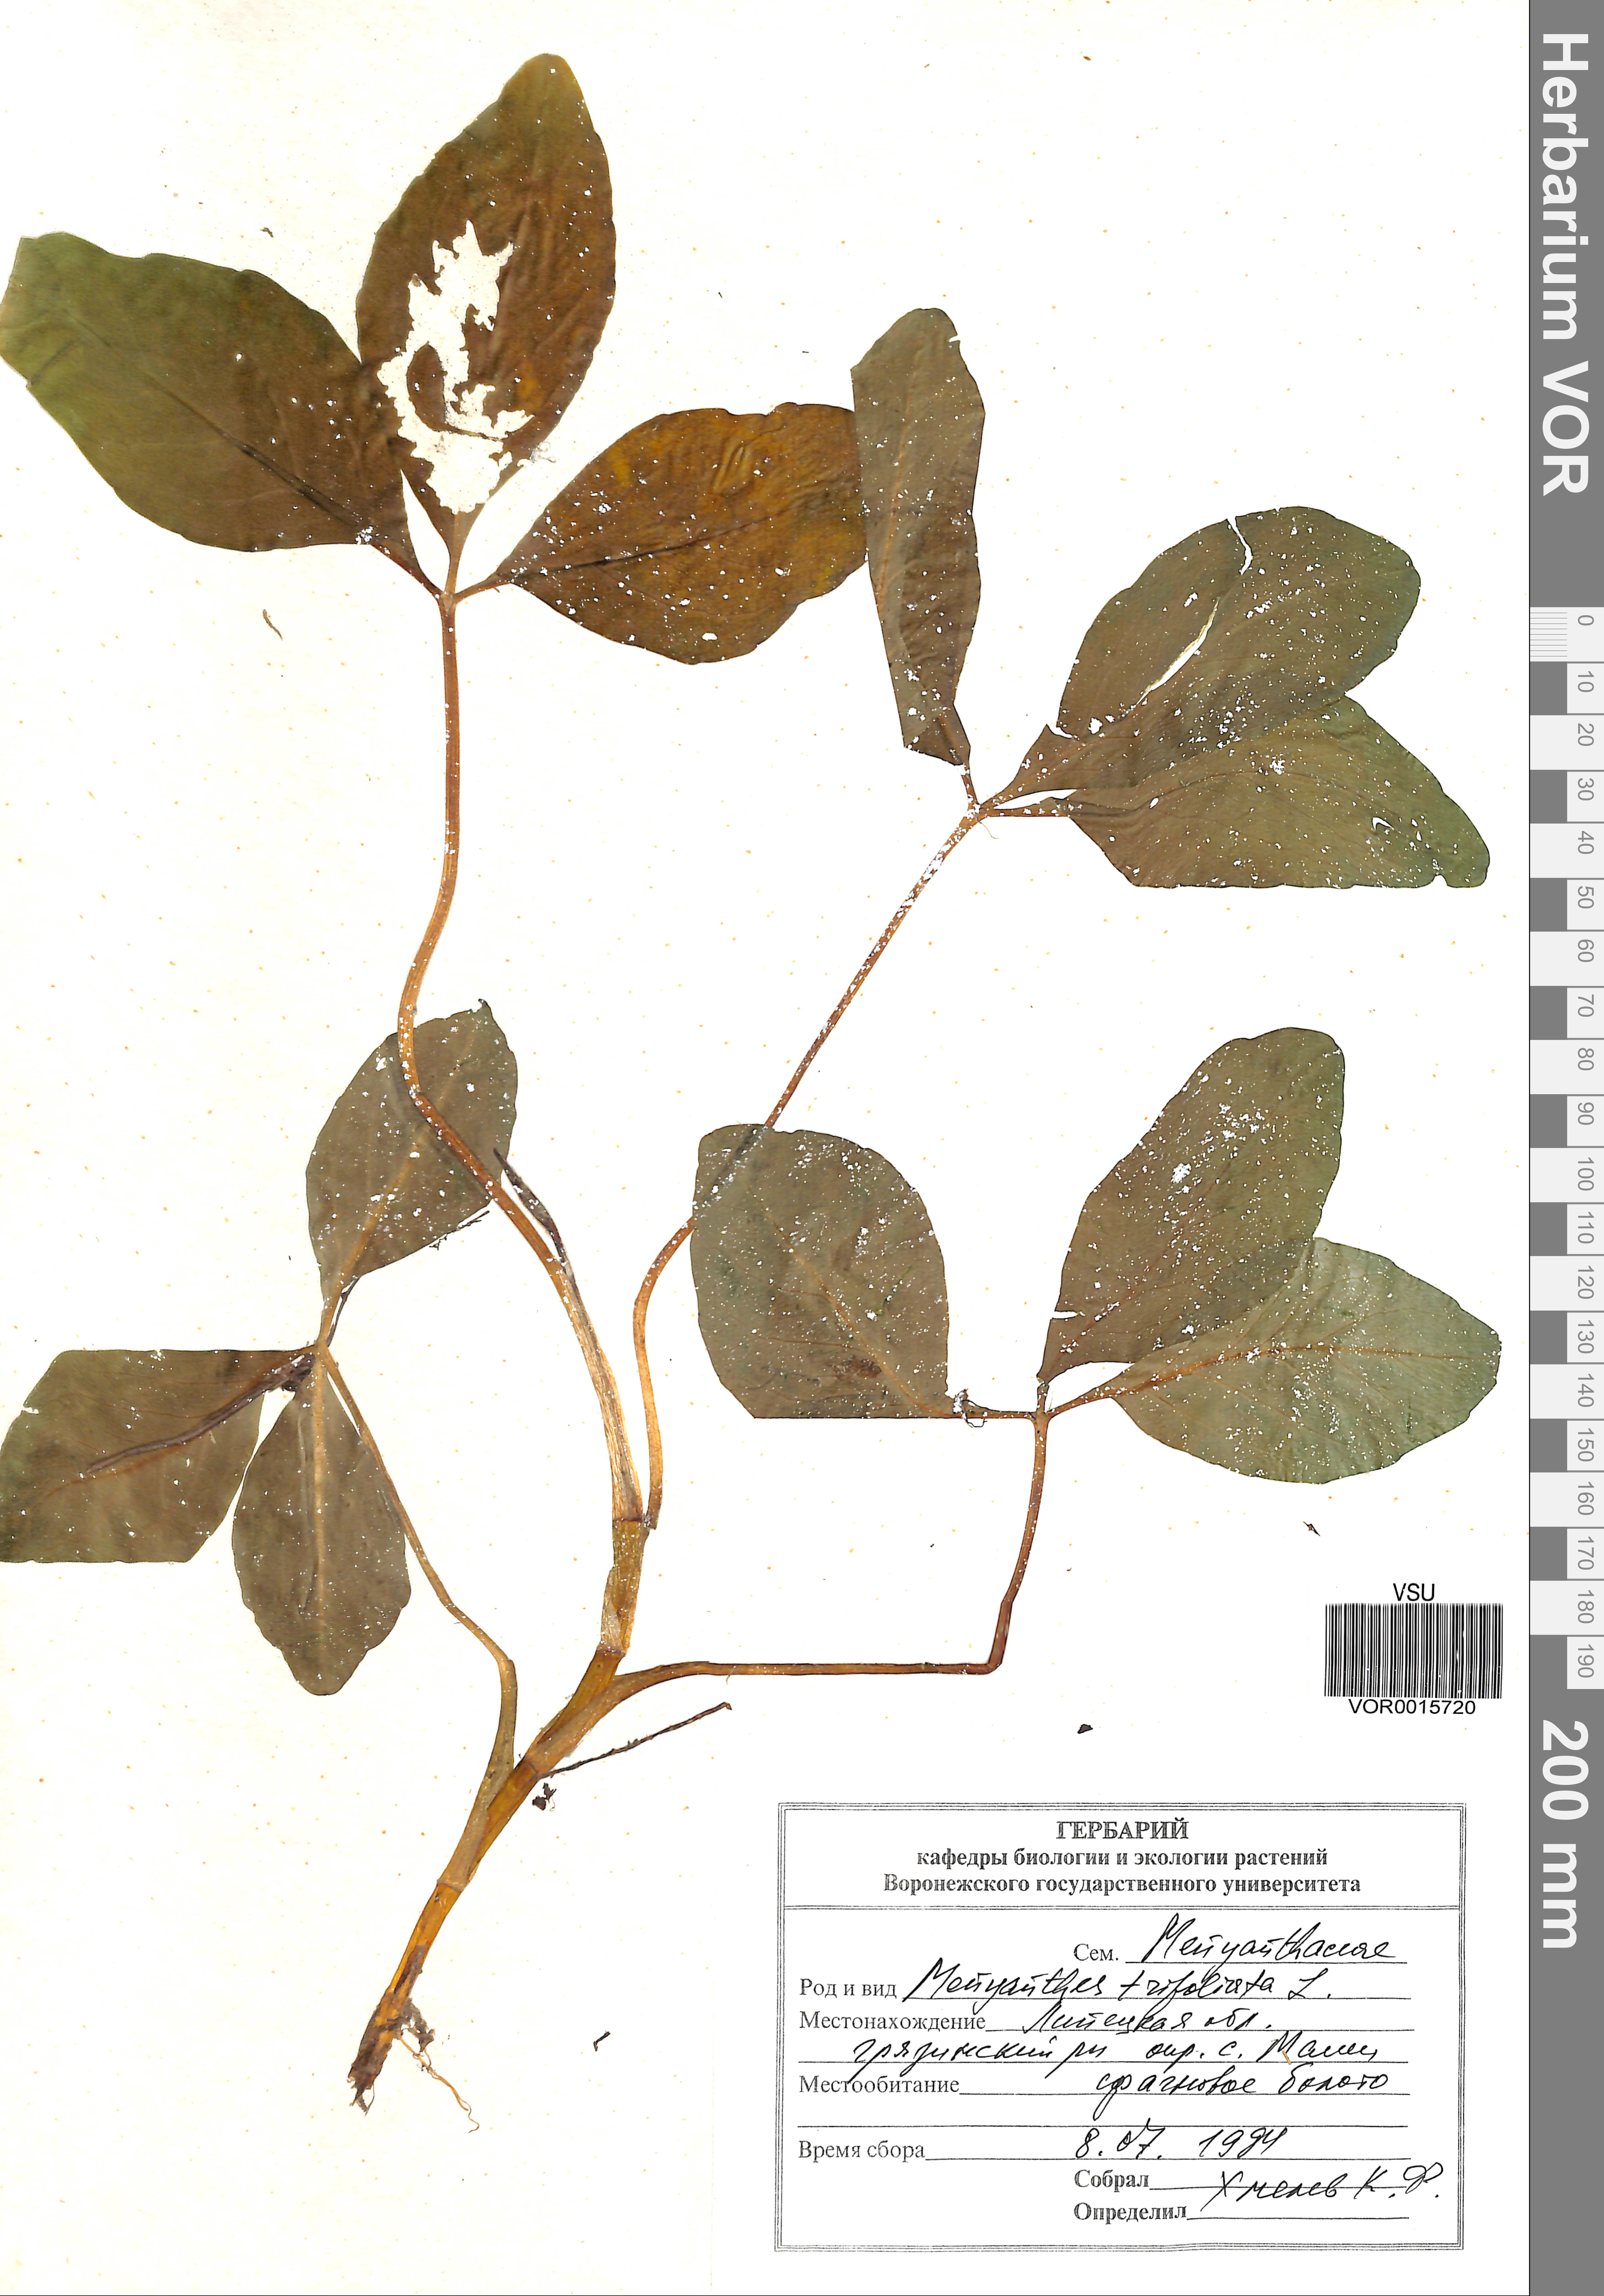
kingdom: Plantae
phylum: Tracheophyta
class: Magnoliopsida
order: Asterales
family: Menyanthaceae
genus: Menyanthes
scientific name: Menyanthes trifoliata
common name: Bogbean
